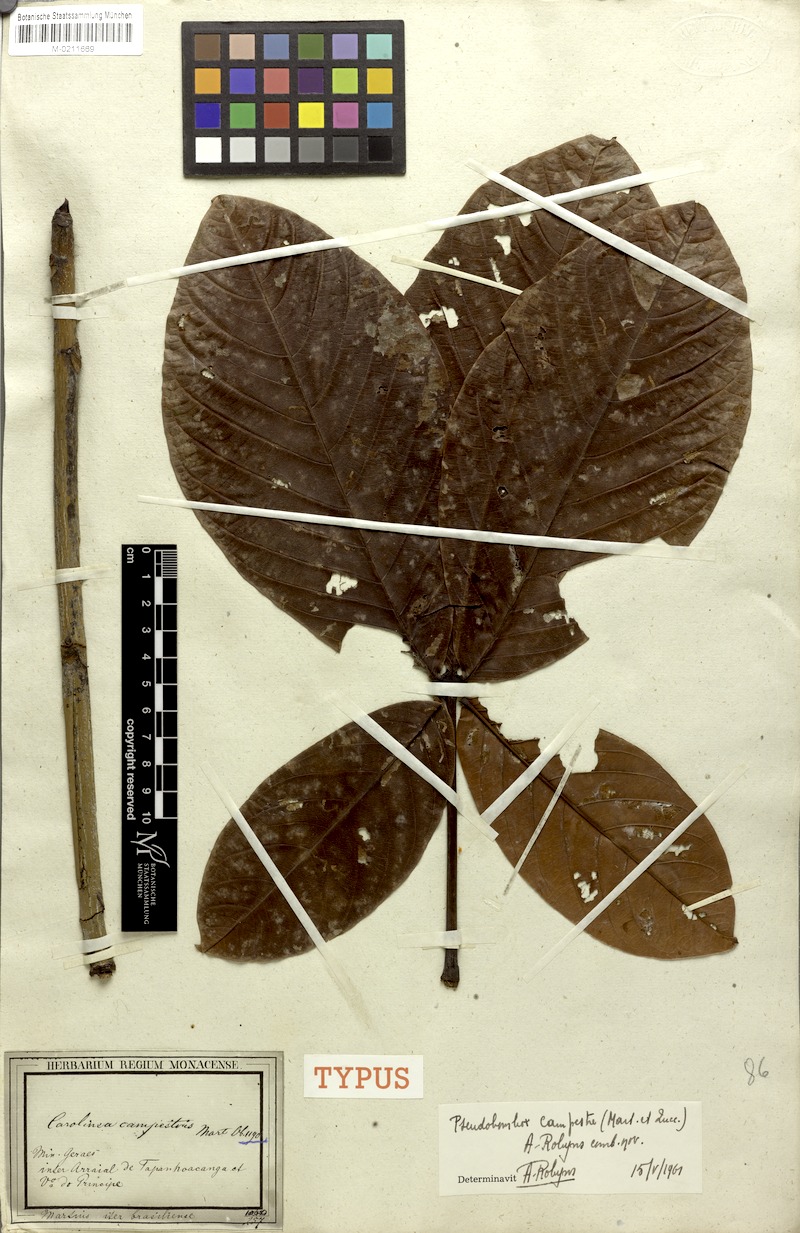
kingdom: Plantae
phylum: Tracheophyta
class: Magnoliopsida
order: Malvales
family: Malvaceae
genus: Pseudobombax
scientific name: Pseudobombax campestre
